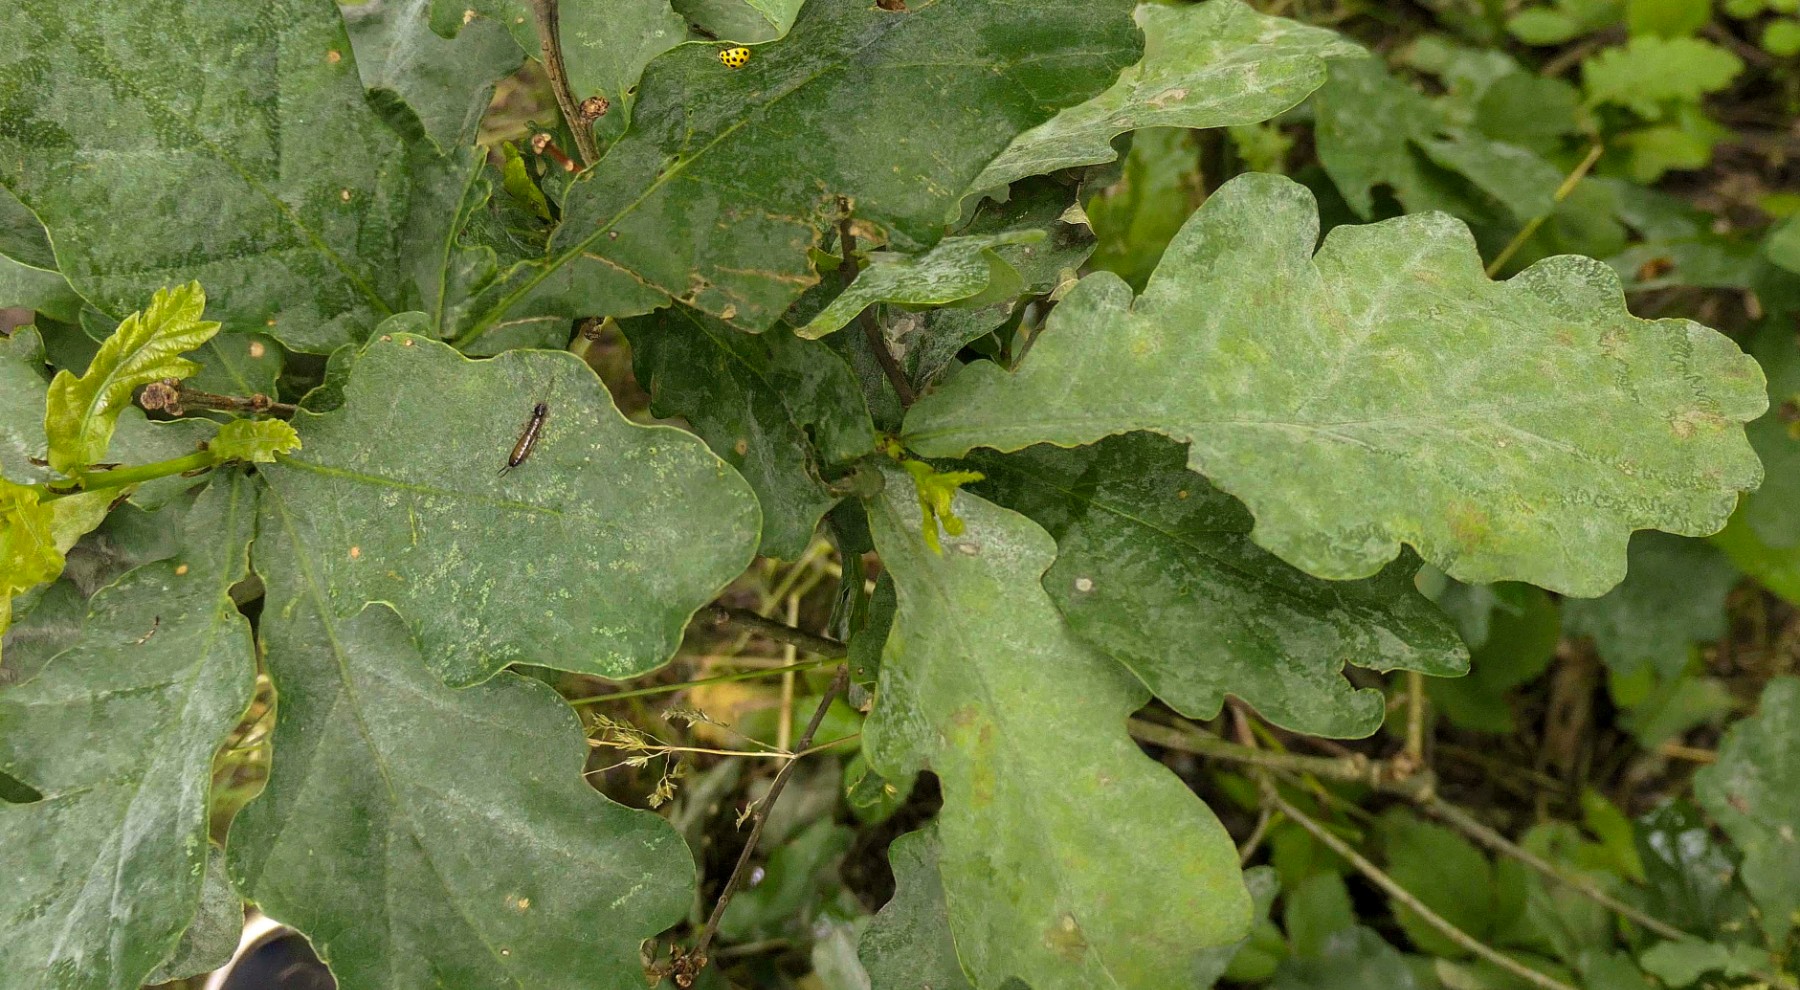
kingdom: Fungi
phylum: Ascomycota
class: Leotiomycetes
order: Helotiales
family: Erysiphaceae
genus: Erysiphe
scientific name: Erysiphe alphitoides
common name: ege-meldug
